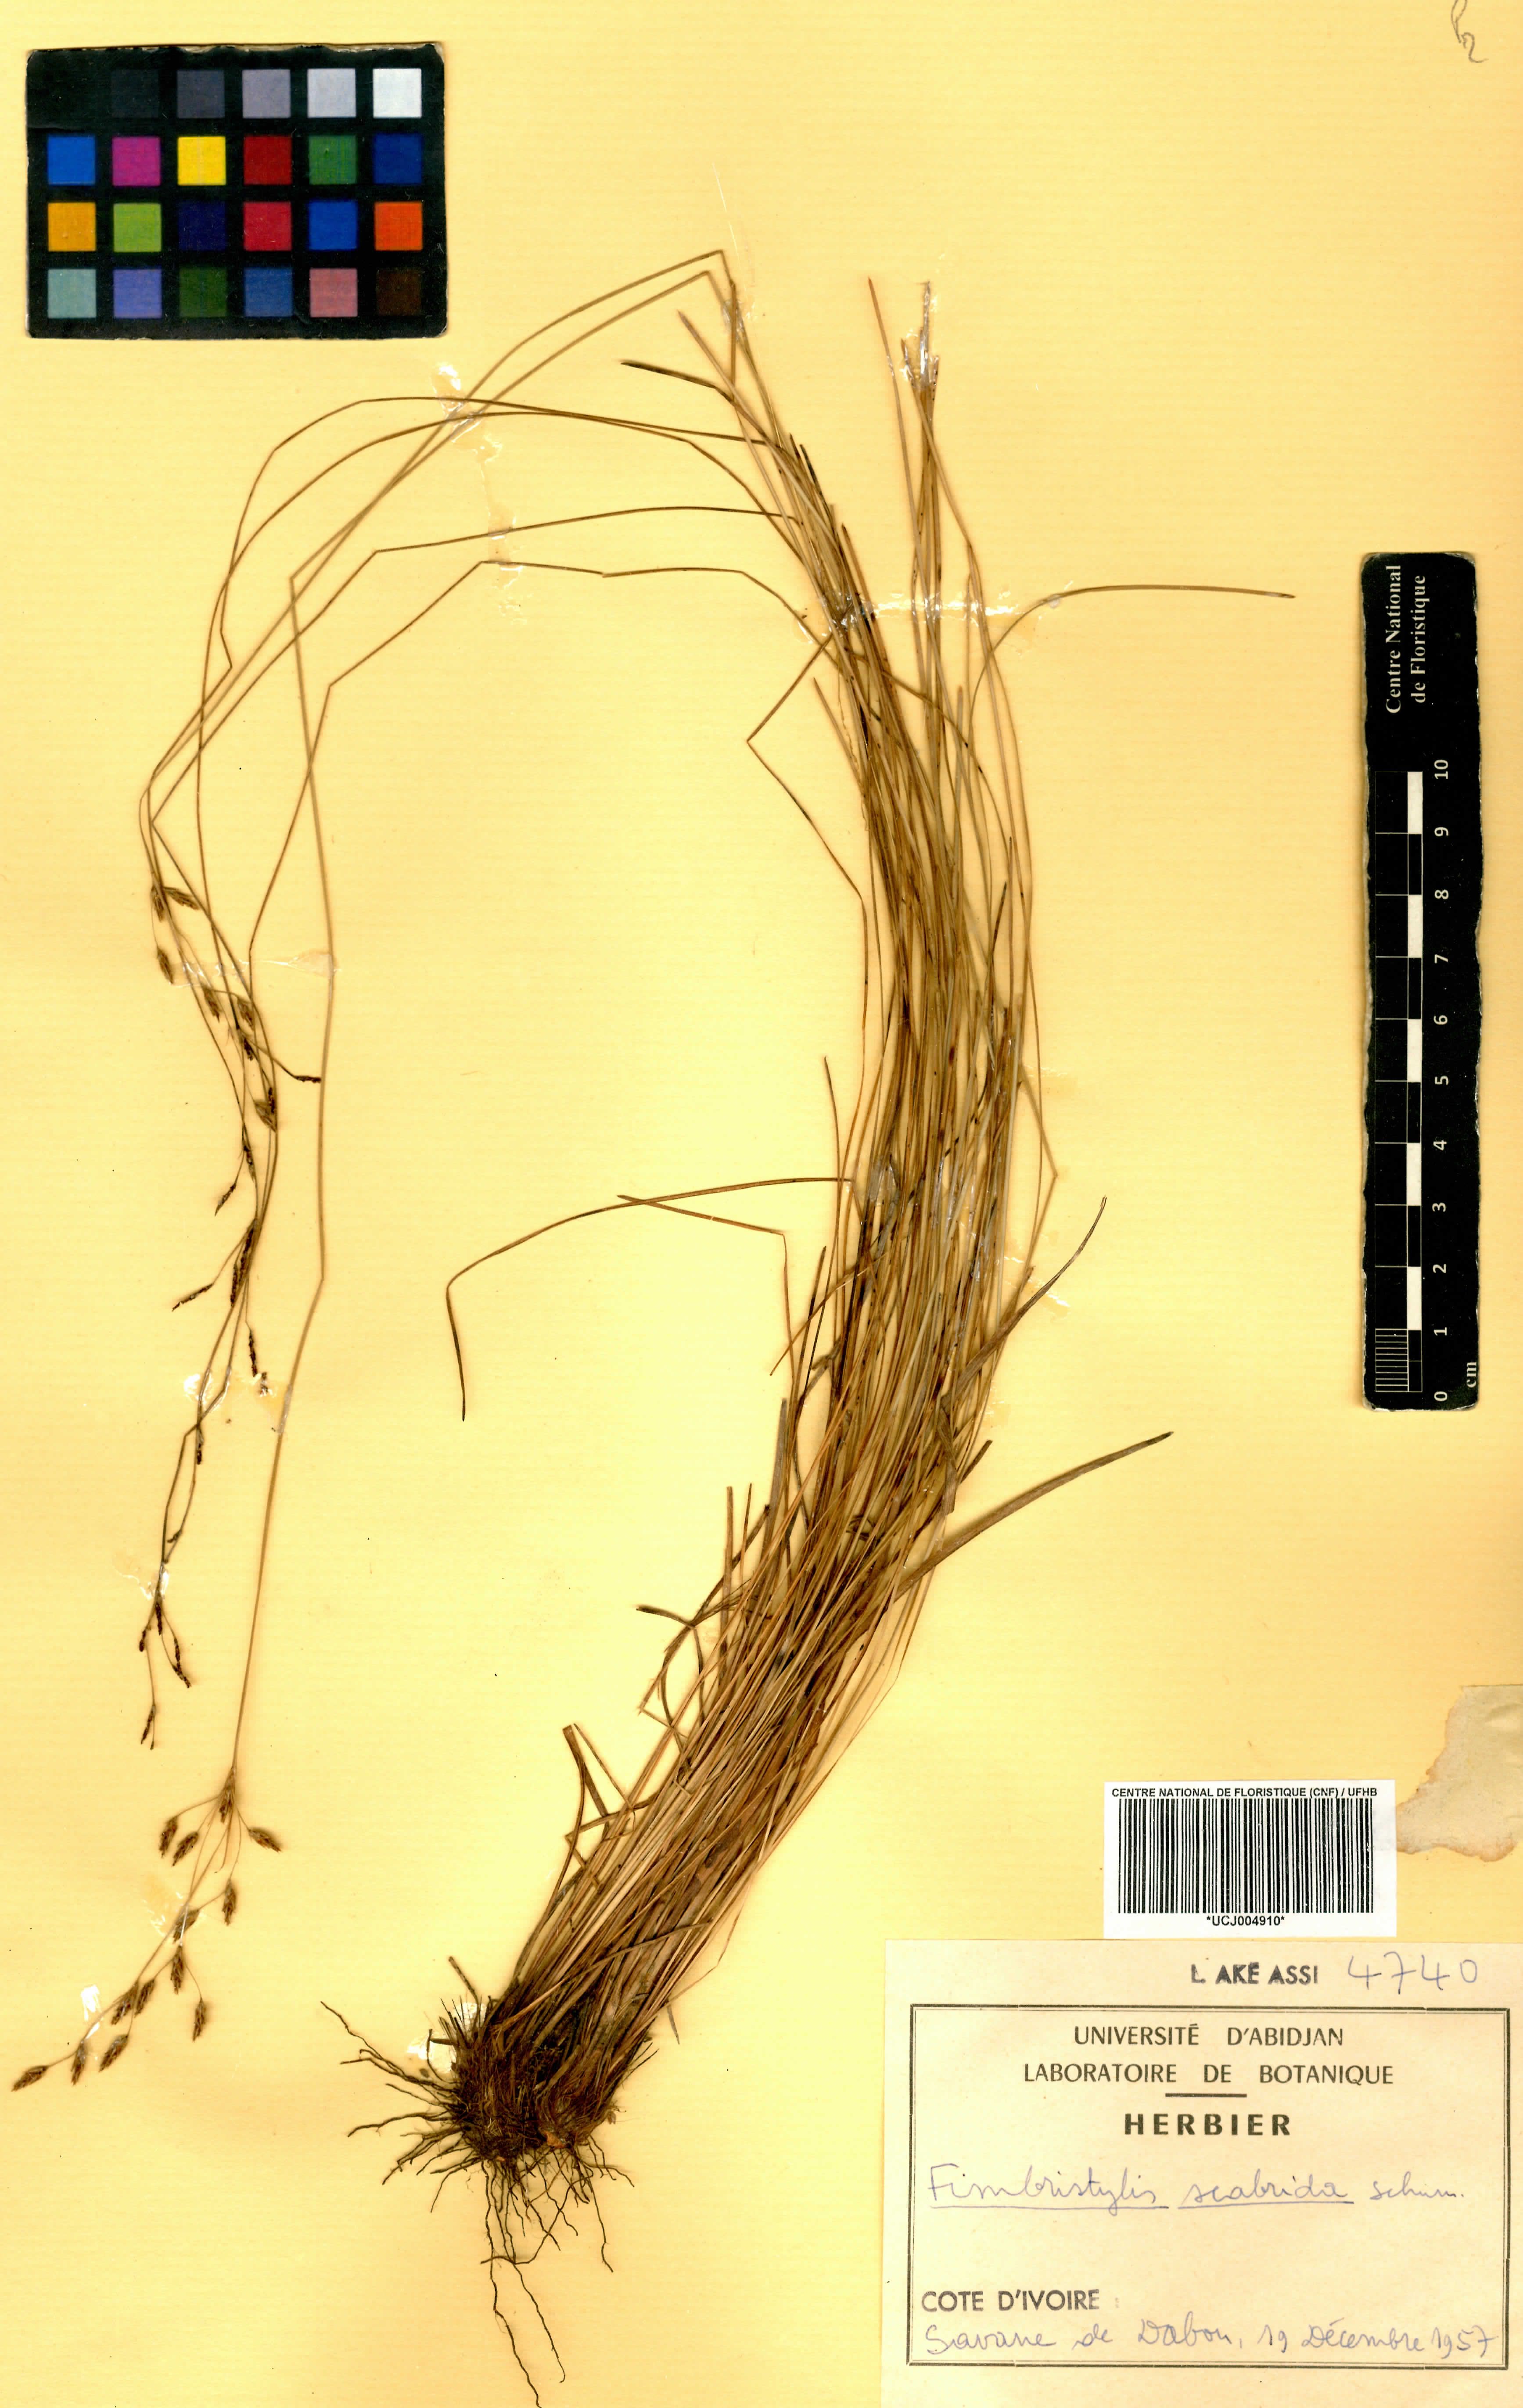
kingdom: Plantae
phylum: Tracheophyta
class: Liliopsida
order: Poales
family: Cyperaceae
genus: Fimbristylis
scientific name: Fimbristylis scabrida
